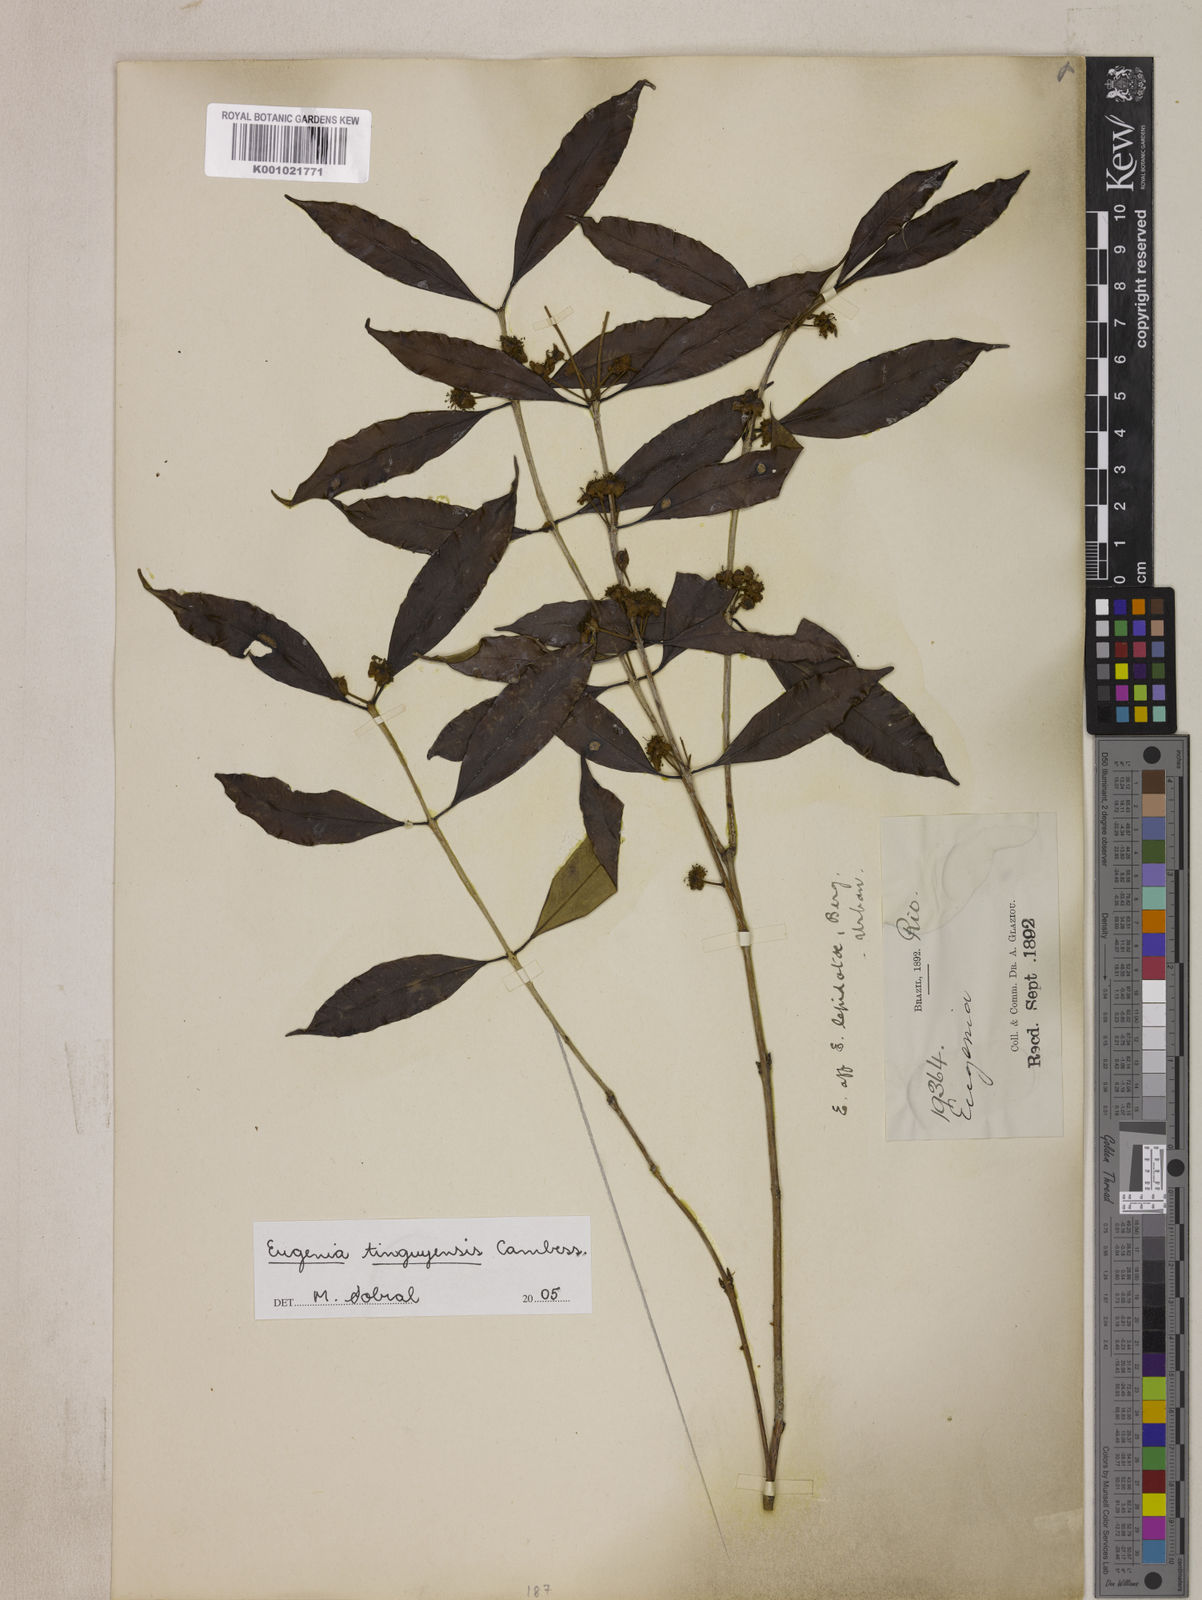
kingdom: Plantae
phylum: Tracheophyta
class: Magnoliopsida
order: Myrtales
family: Myrtaceae
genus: Eugenia
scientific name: Eugenia pisiformis
